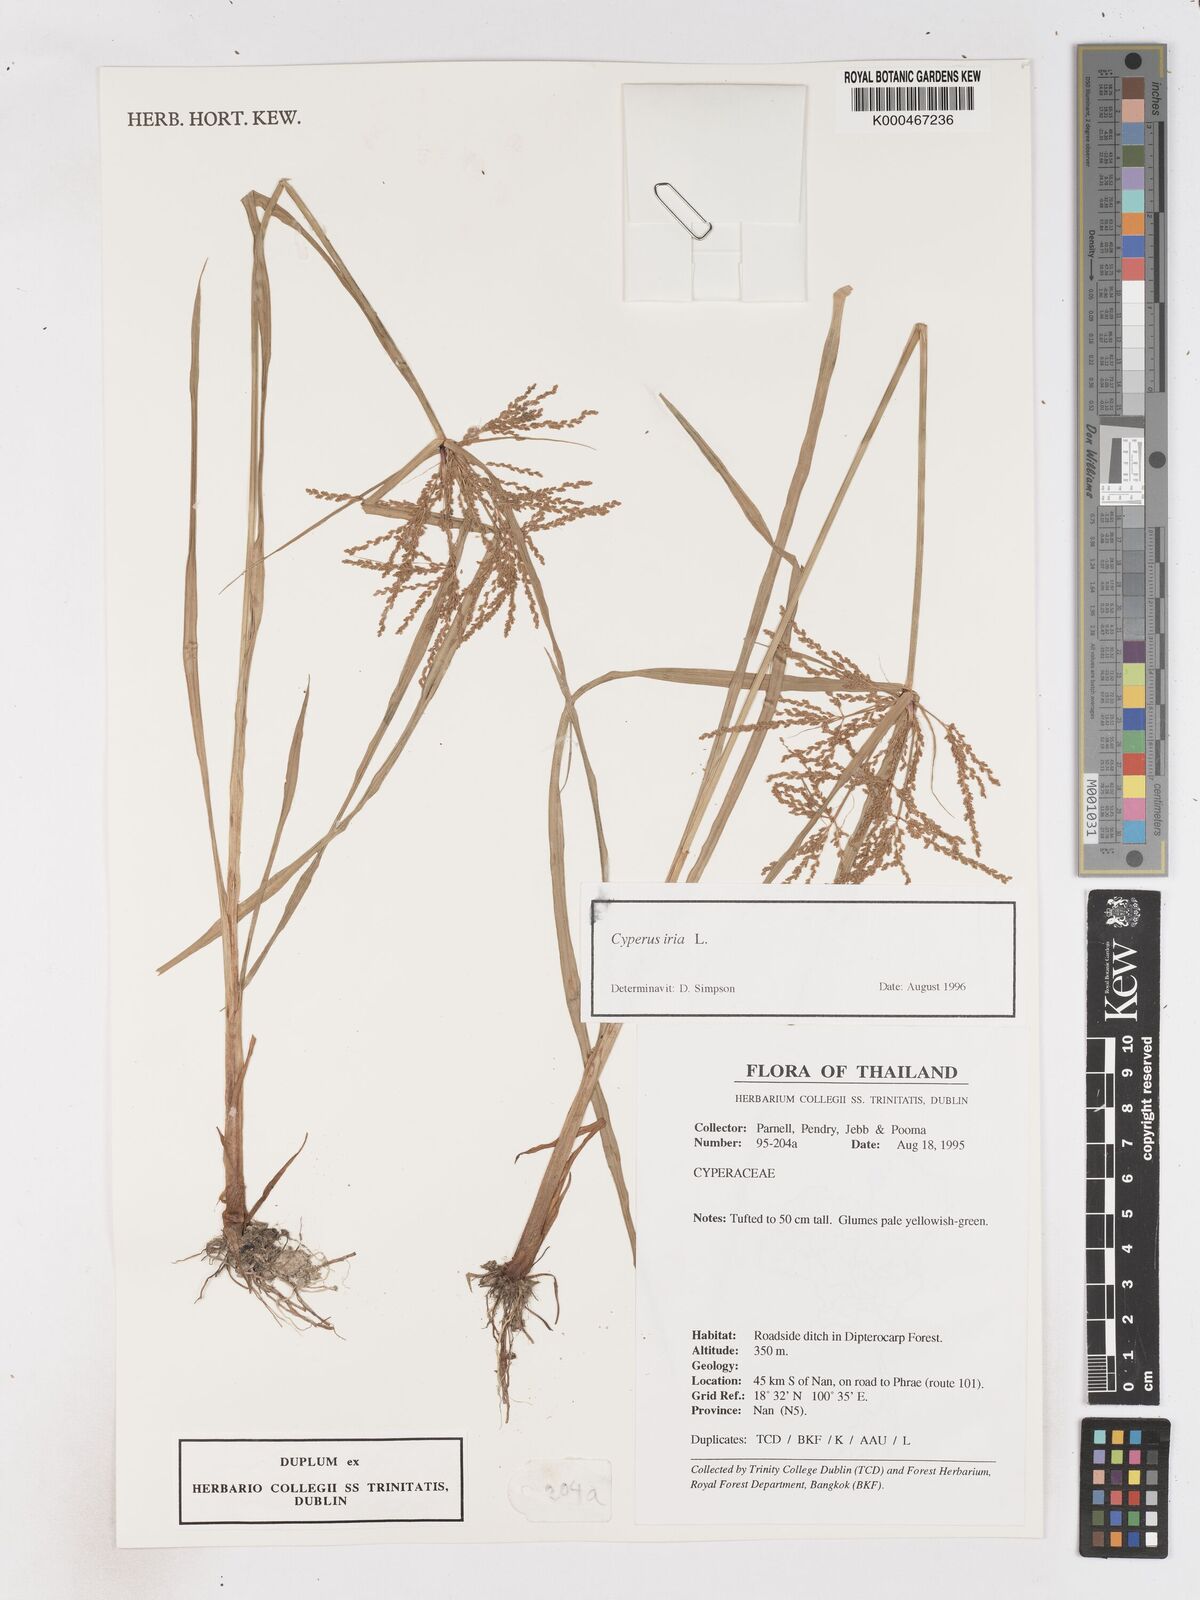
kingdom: Plantae
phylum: Tracheophyta
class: Liliopsida
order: Poales
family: Cyperaceae
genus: Cyperus
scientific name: Cyperus iria
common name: Ricefield flatsedge
